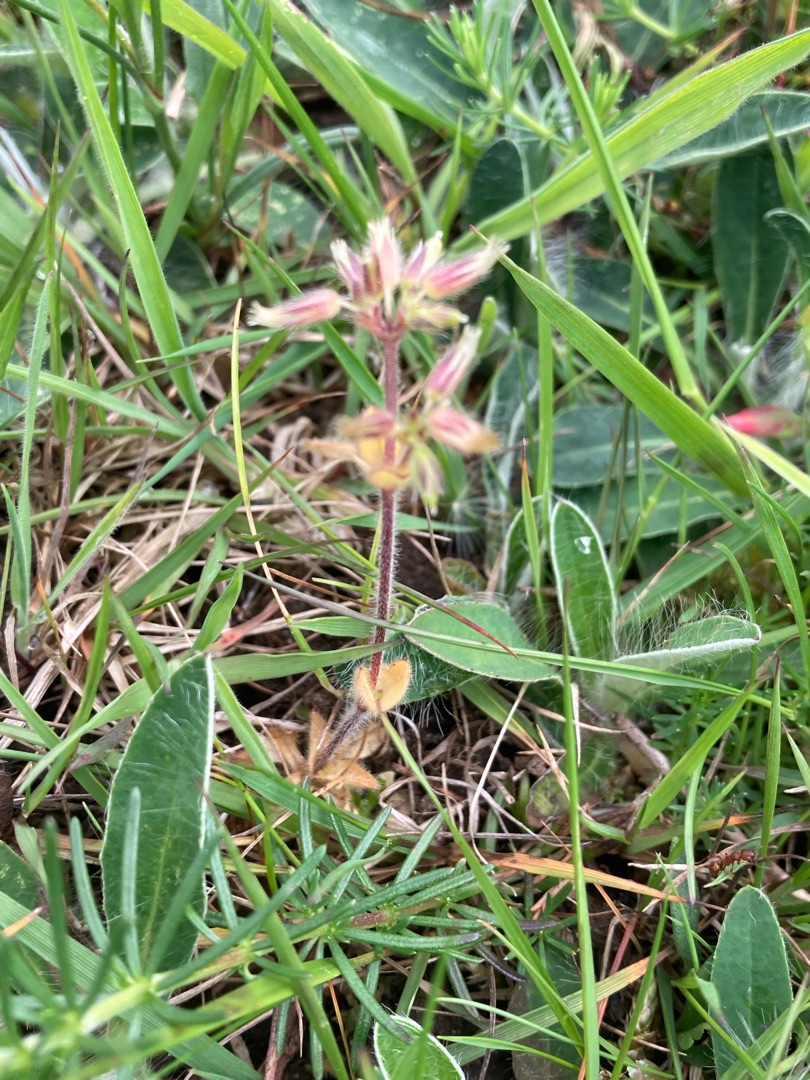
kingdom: Plantae
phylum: Tracheophyta
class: Magnoliopsida
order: Caryophyllales
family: Caryophyllaceae
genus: Cerastium
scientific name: Cerastium glomeratum
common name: Opret hønsetarm
